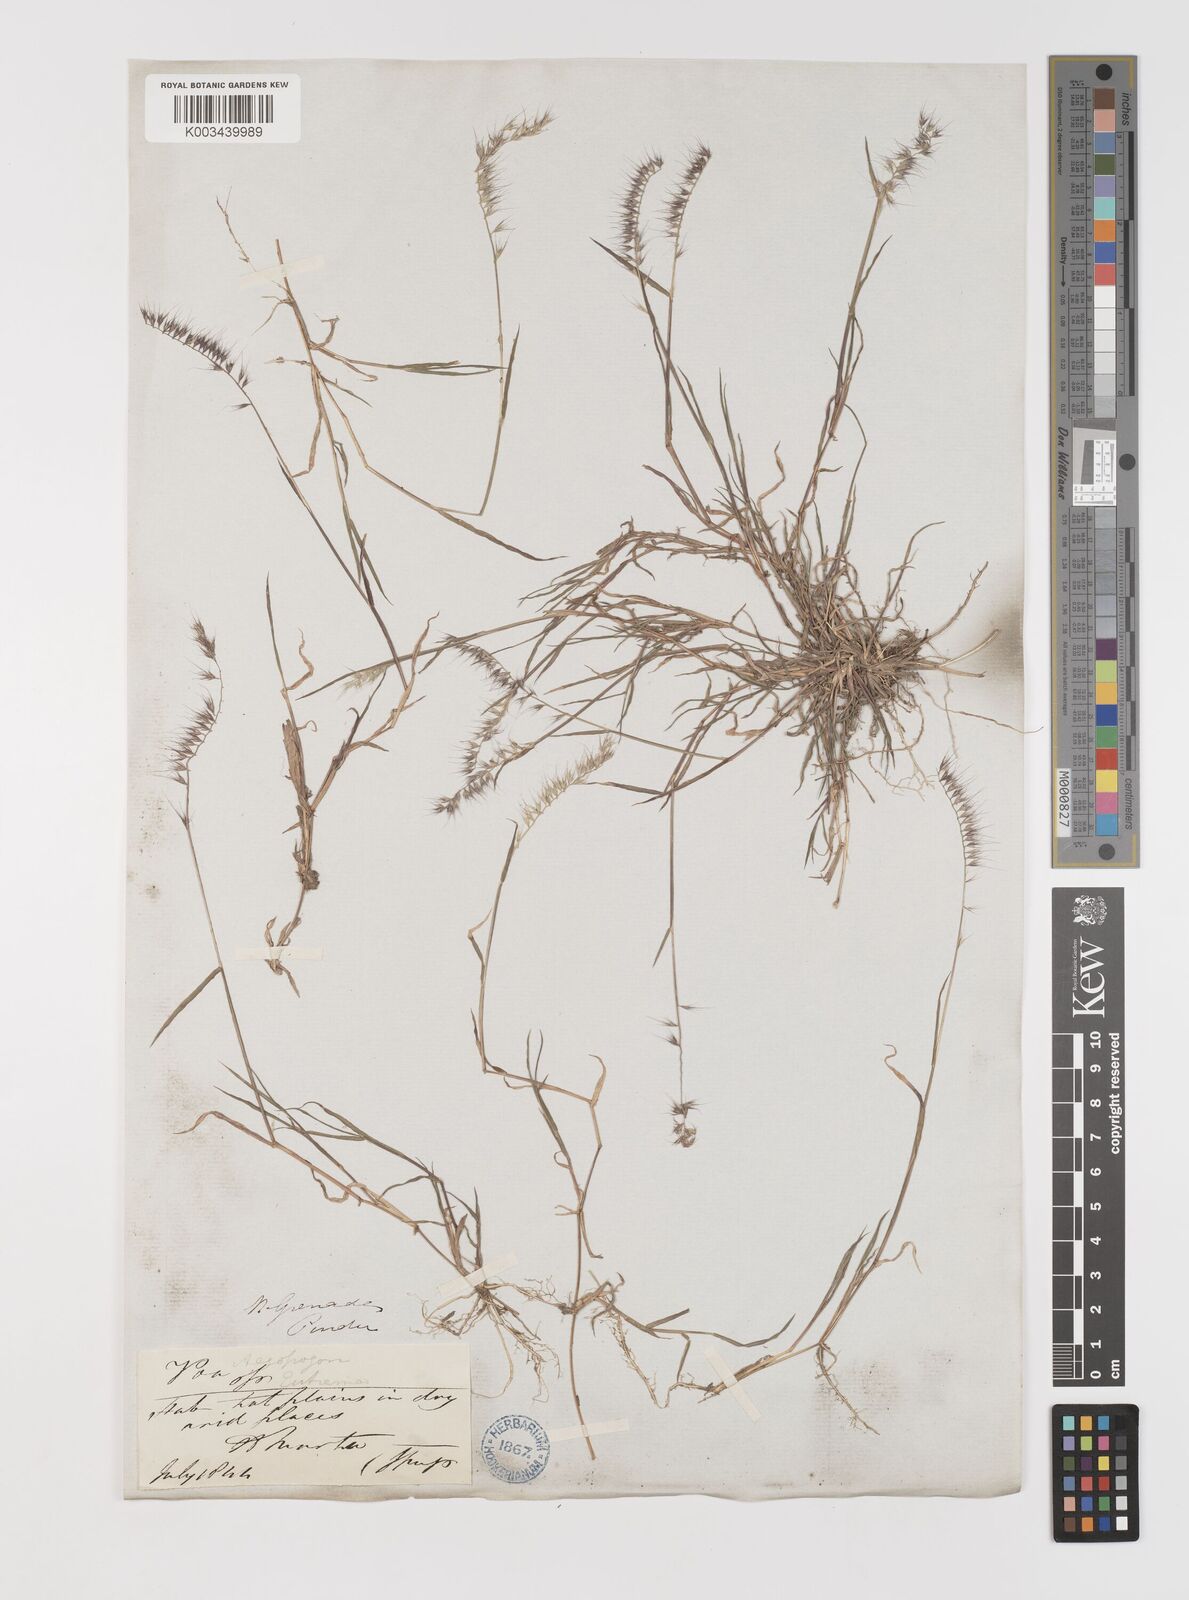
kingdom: Plantae
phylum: Tracheophyta
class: Liliopsida
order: Poales
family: Poaceae
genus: Muhlenbergia
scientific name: Muhlenbergia cenchroides
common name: Relaxgrass
